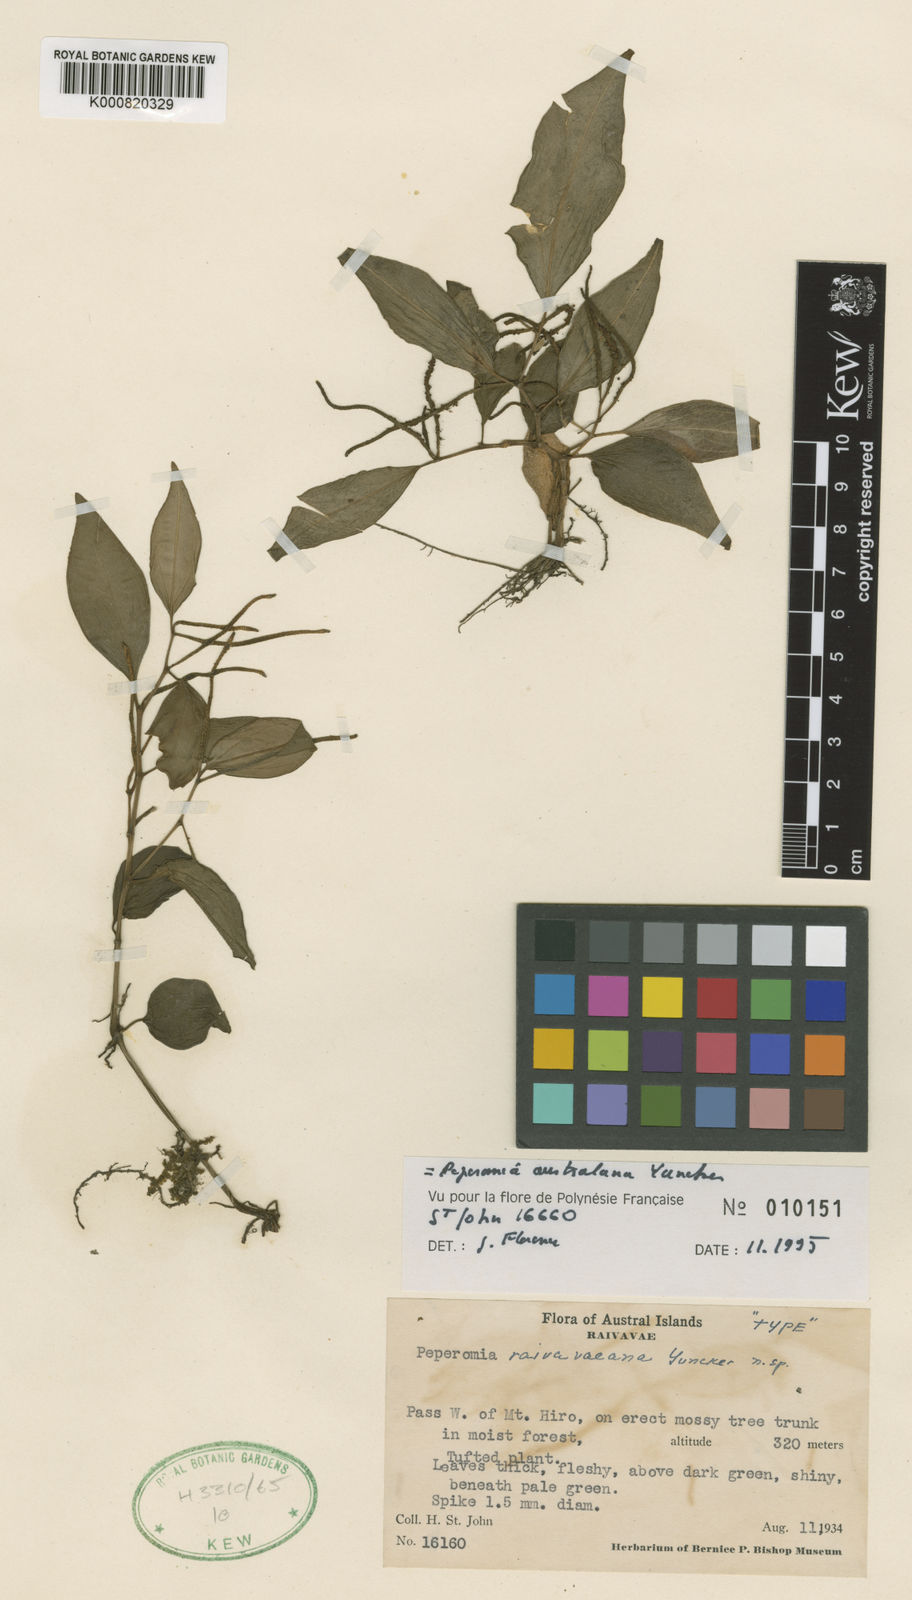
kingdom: Plantae
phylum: Tracheophyta
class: Magnoliopsida
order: Piperales
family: Piperaceae
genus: Peperomia
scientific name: Peperomia australana
